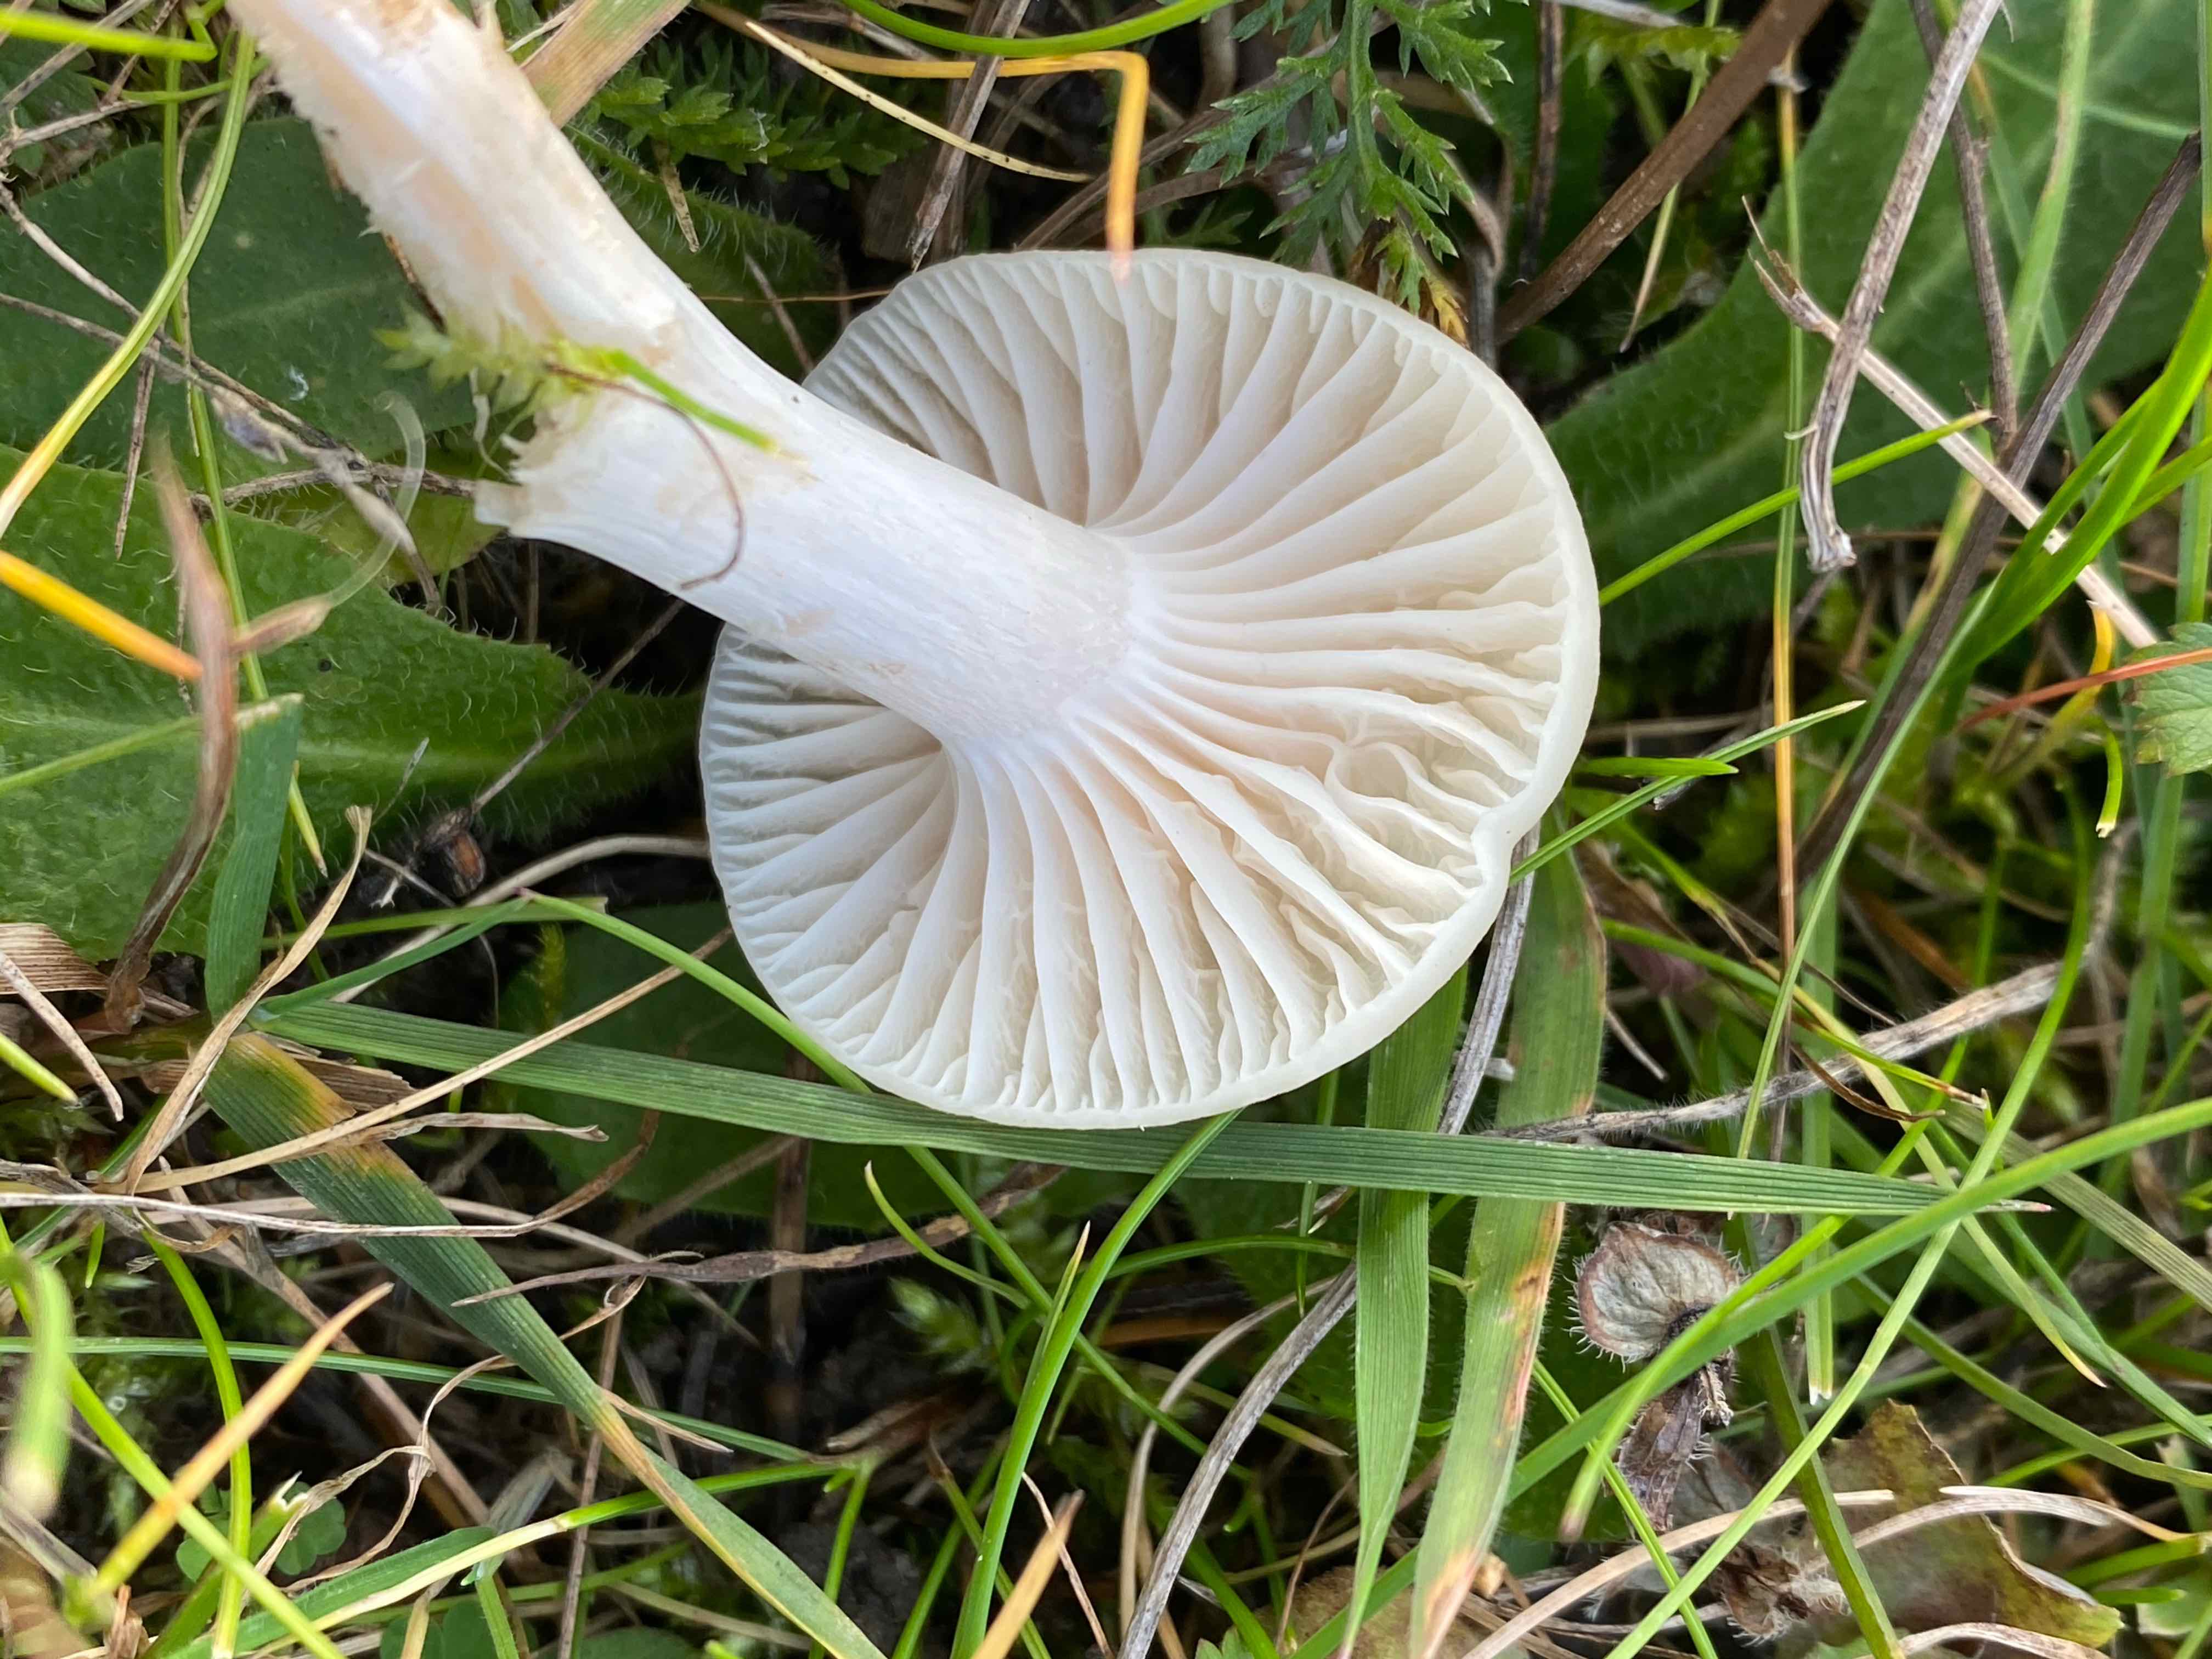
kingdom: Fungi
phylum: Basidiomycota
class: Agaricomycetes
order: Agaricales
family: Hygrophoraceae
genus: Cuphophyllus
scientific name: Cuphophyllus virgineus
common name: snehvid vokshat
